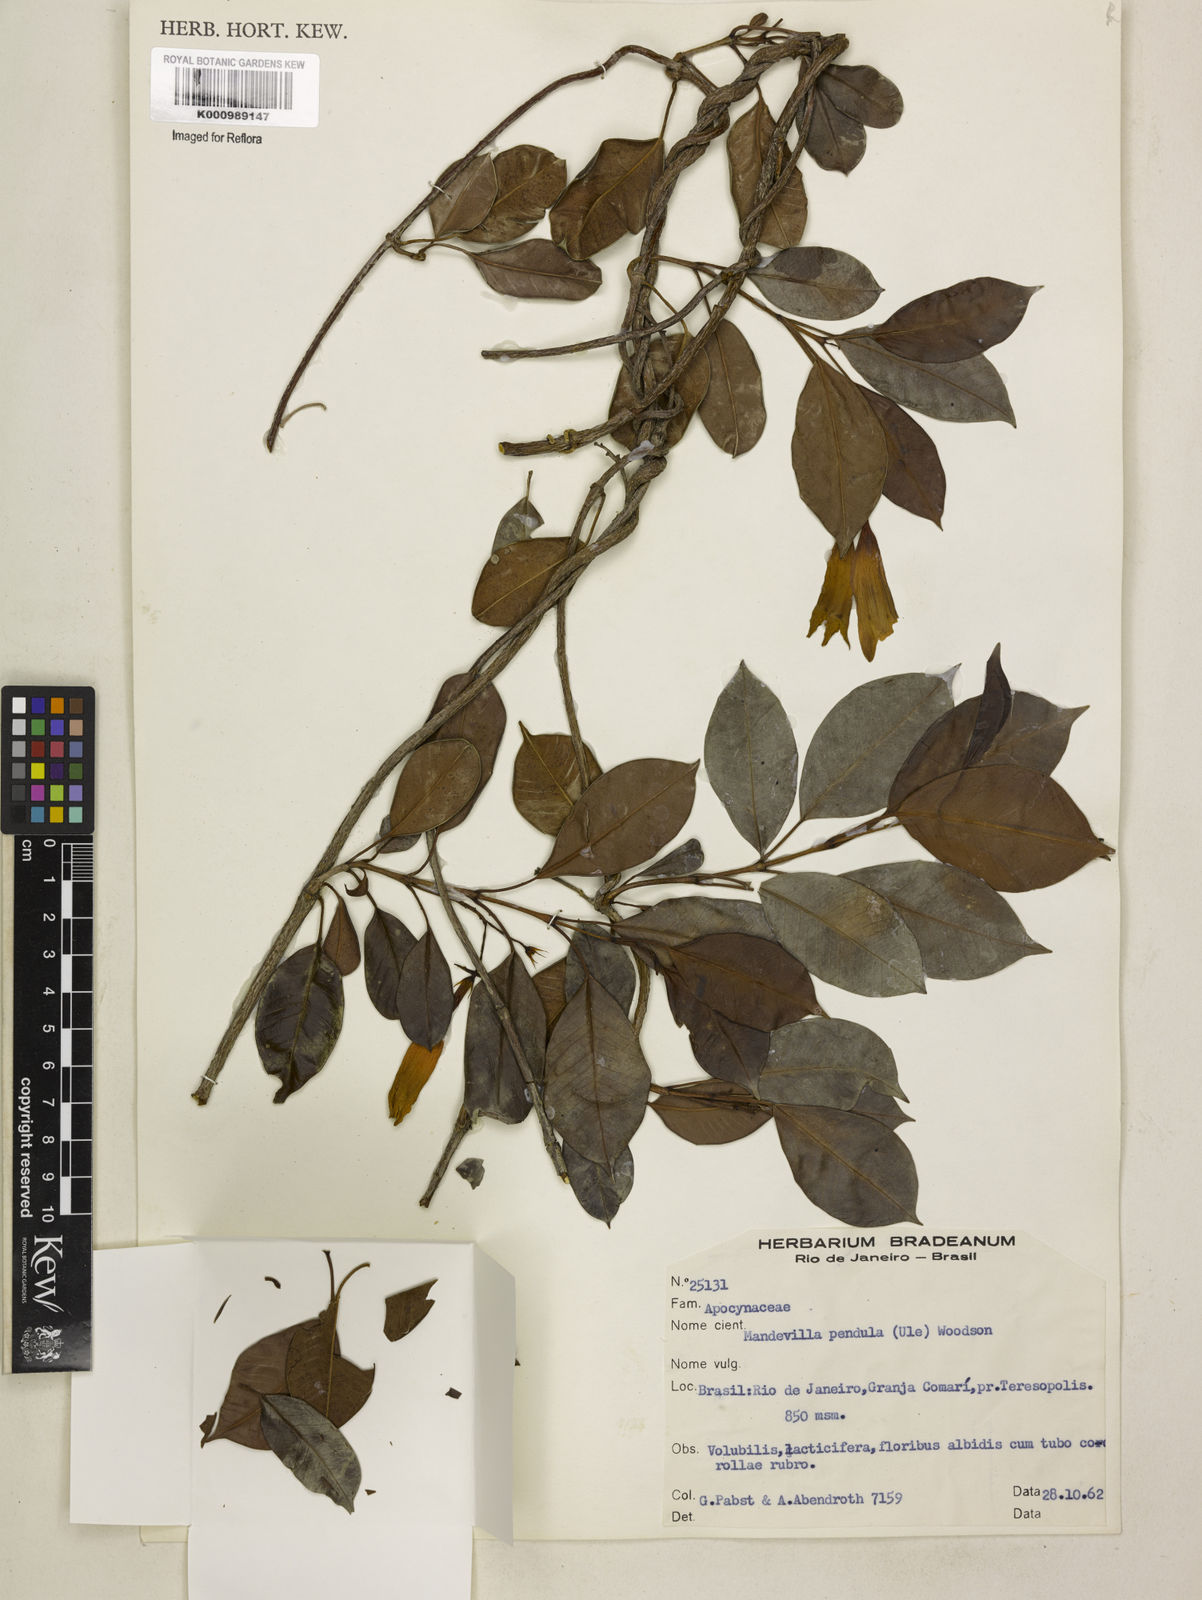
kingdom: Plantae
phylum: Tracheophyta
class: Magnoliopsida
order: Gentianales
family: Apocynaceae
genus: Mandevilla
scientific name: Mandevilla pendula
